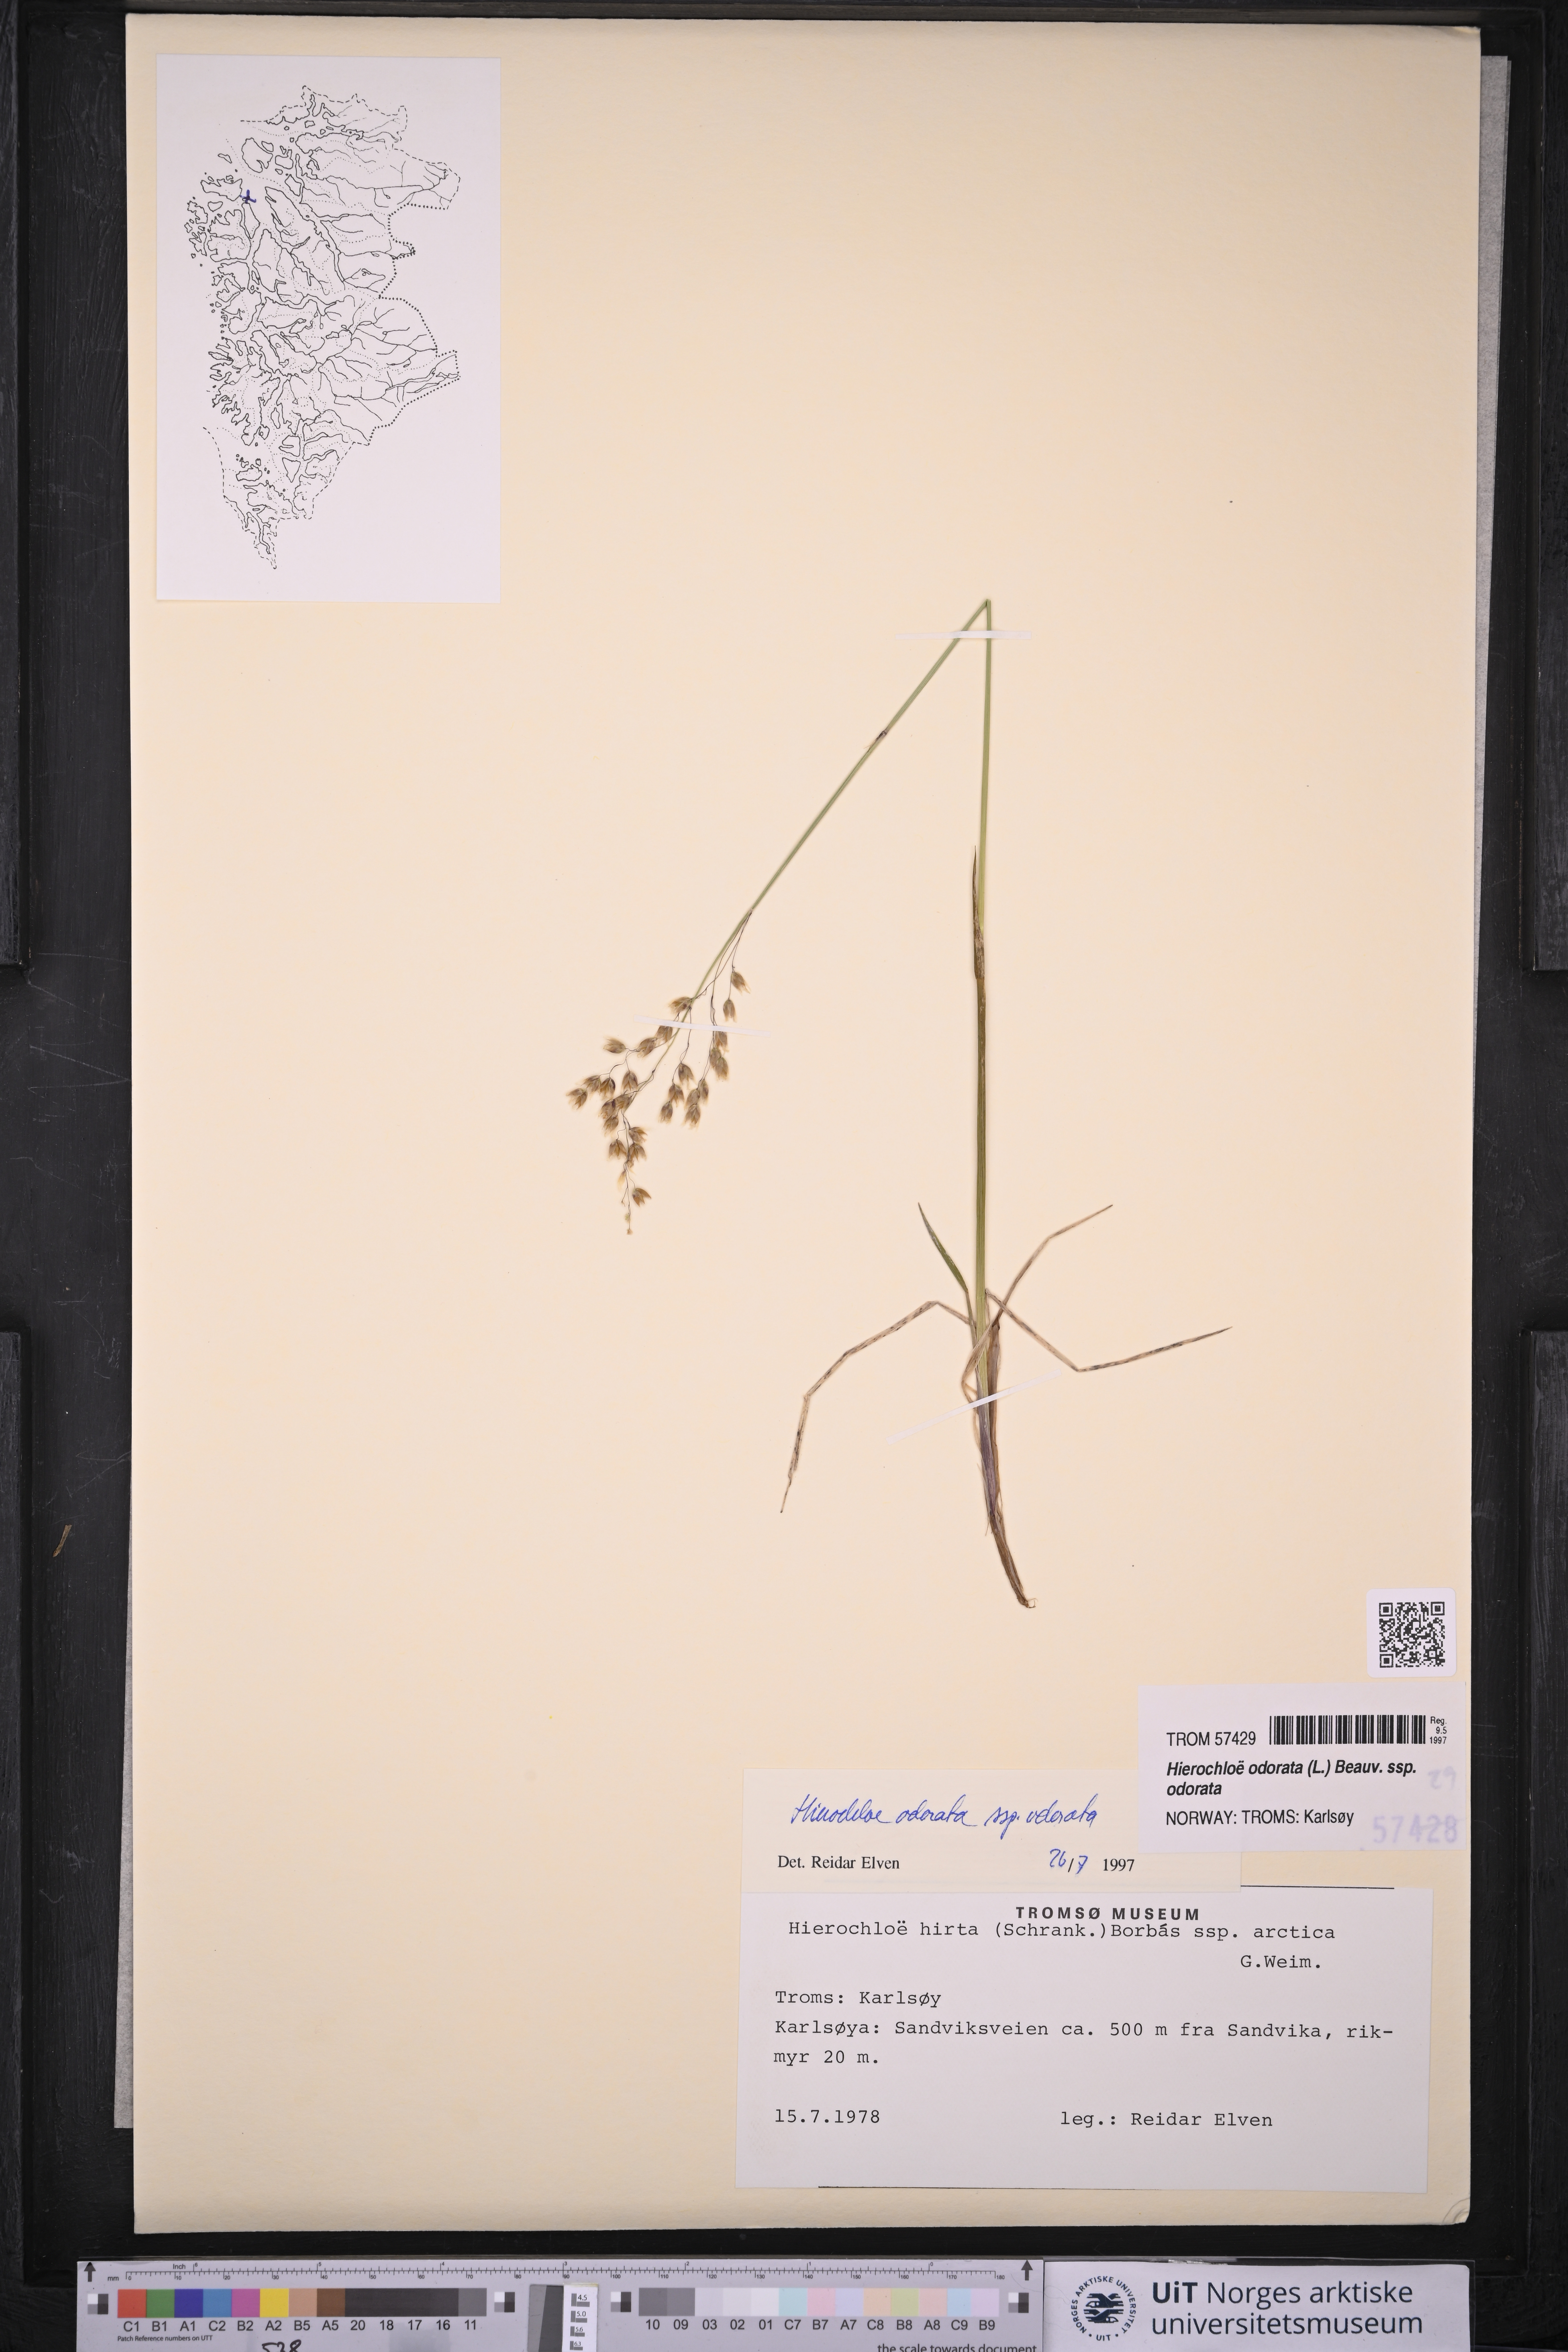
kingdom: Plantae
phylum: Tracheophyta
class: Liliopsida
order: Poales
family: Poaceae
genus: Anthoxanthum
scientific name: Anthoxanthum nitens
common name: Holy grass
